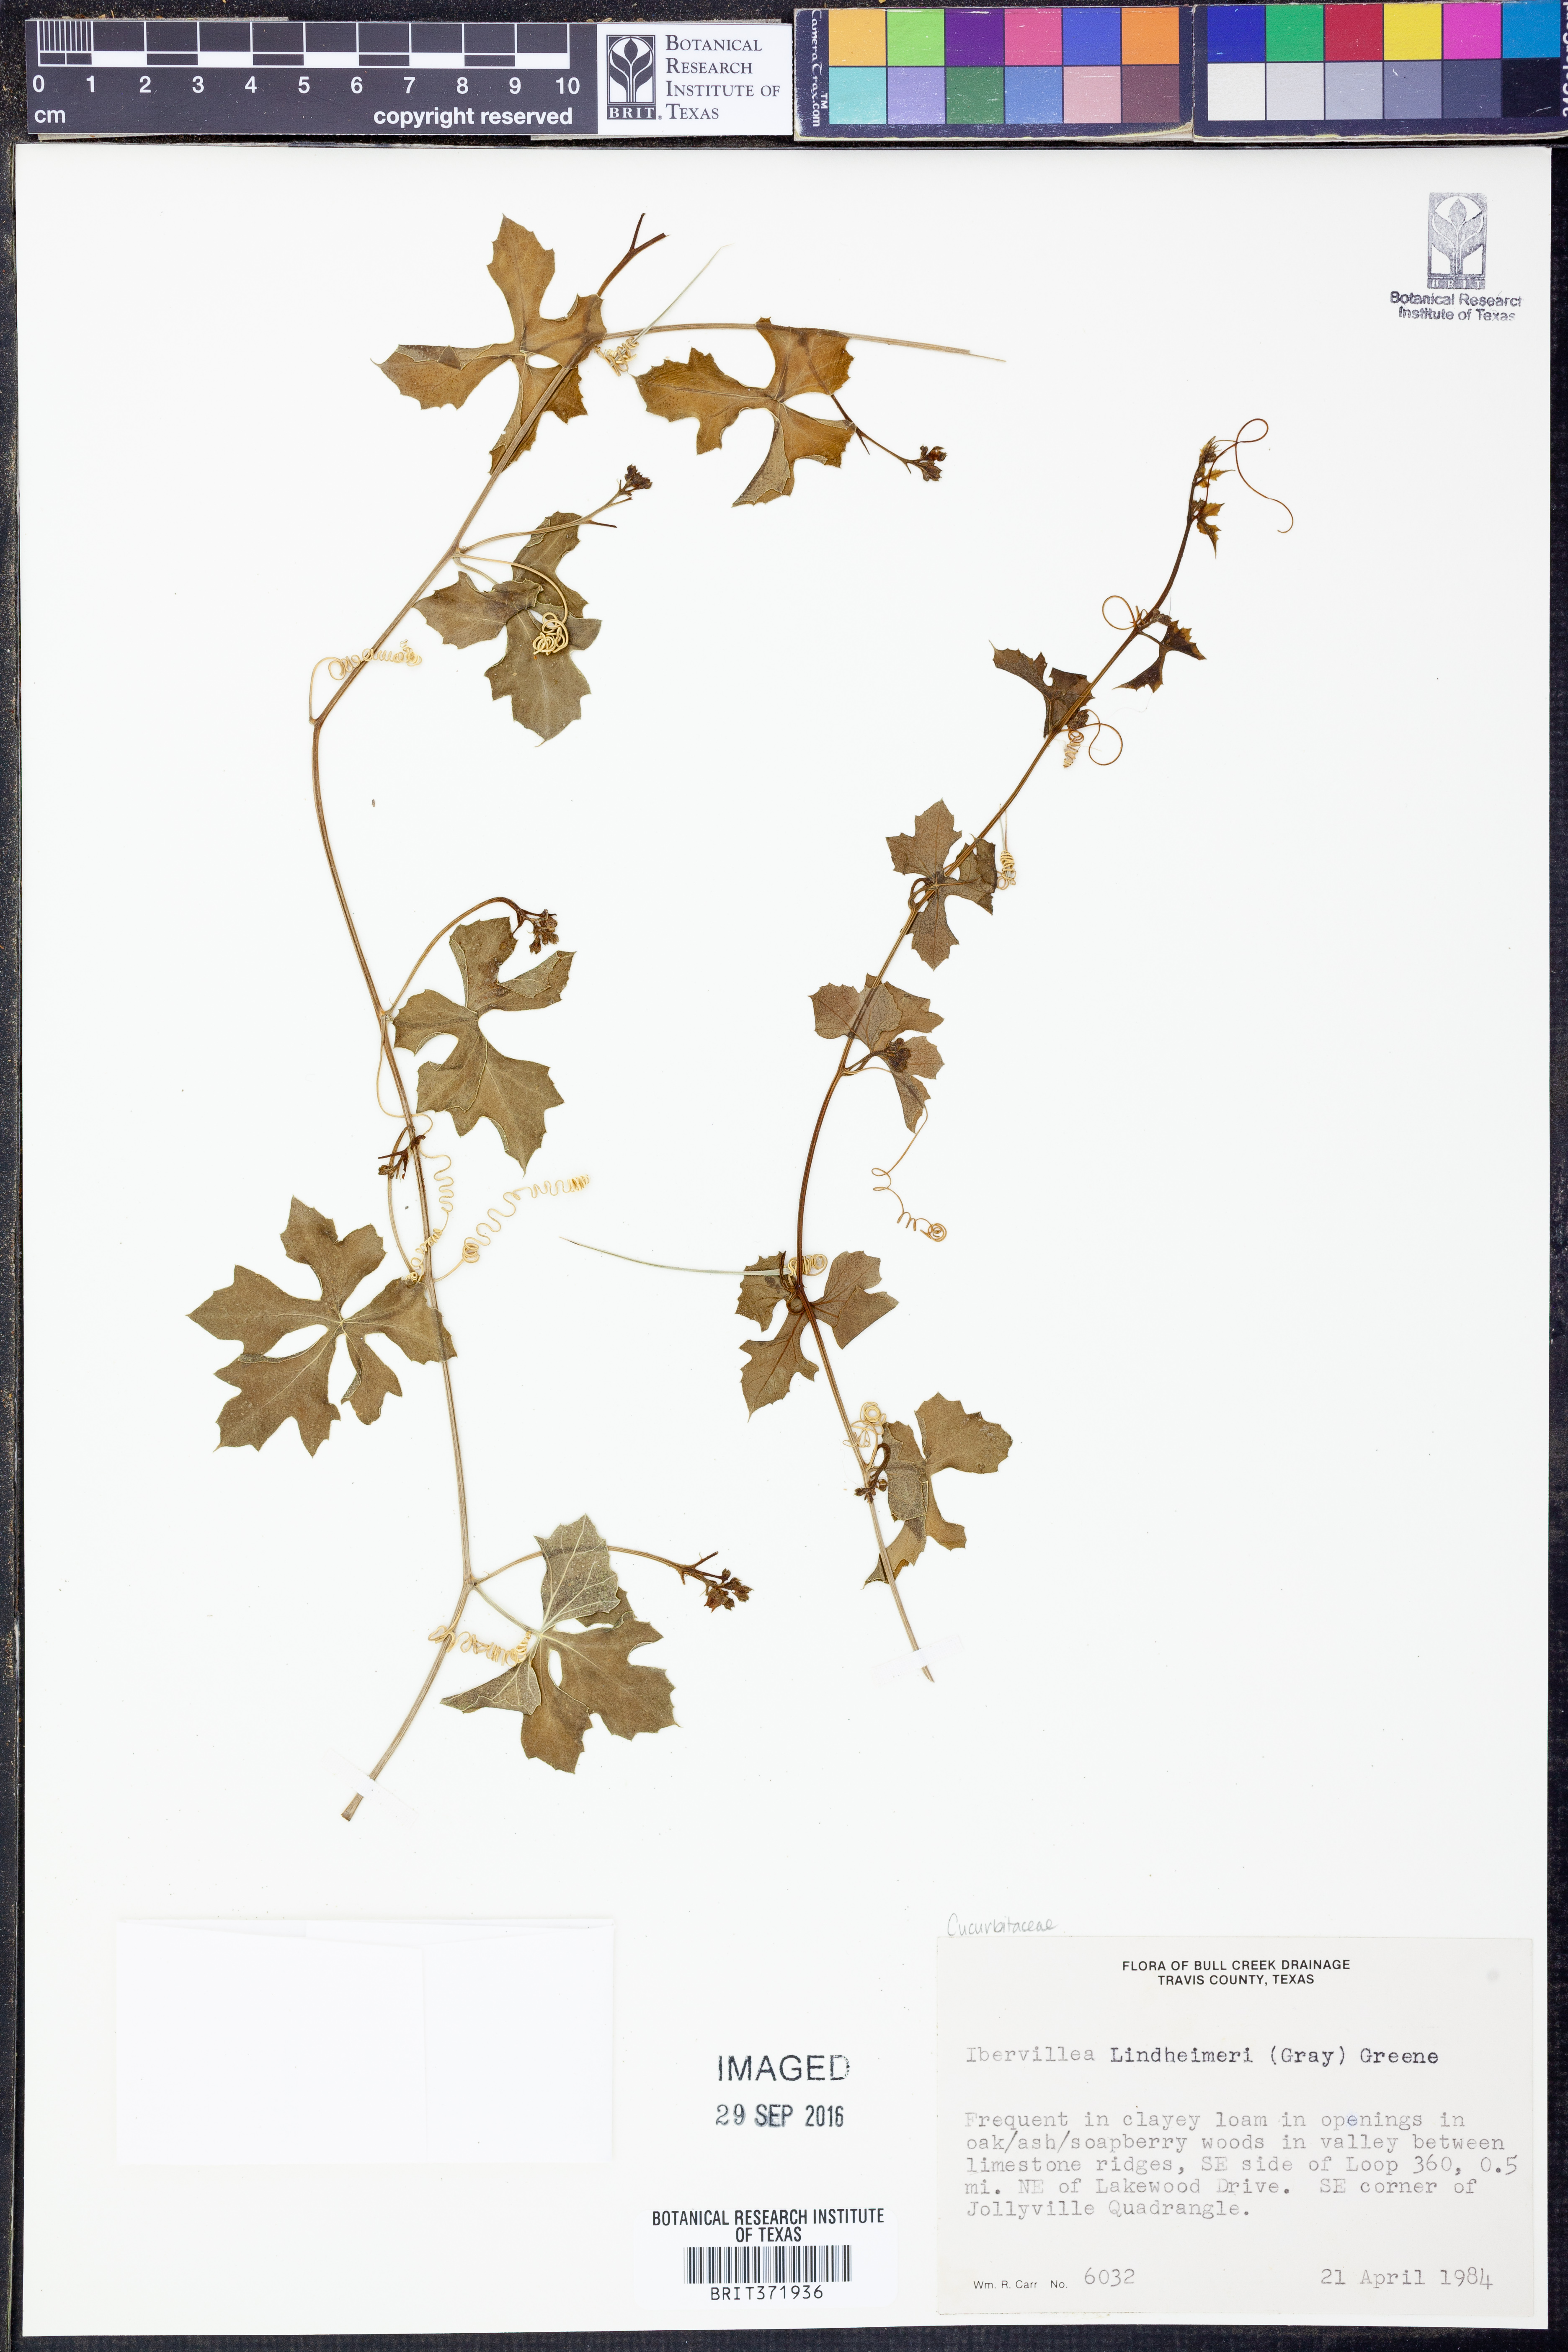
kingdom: Plantae
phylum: Tracheophyta
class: Magnoliopsida
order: Cucurbitales
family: Cucurbitaceae
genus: Ibervillea
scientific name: Ibervillea lindheimeri
